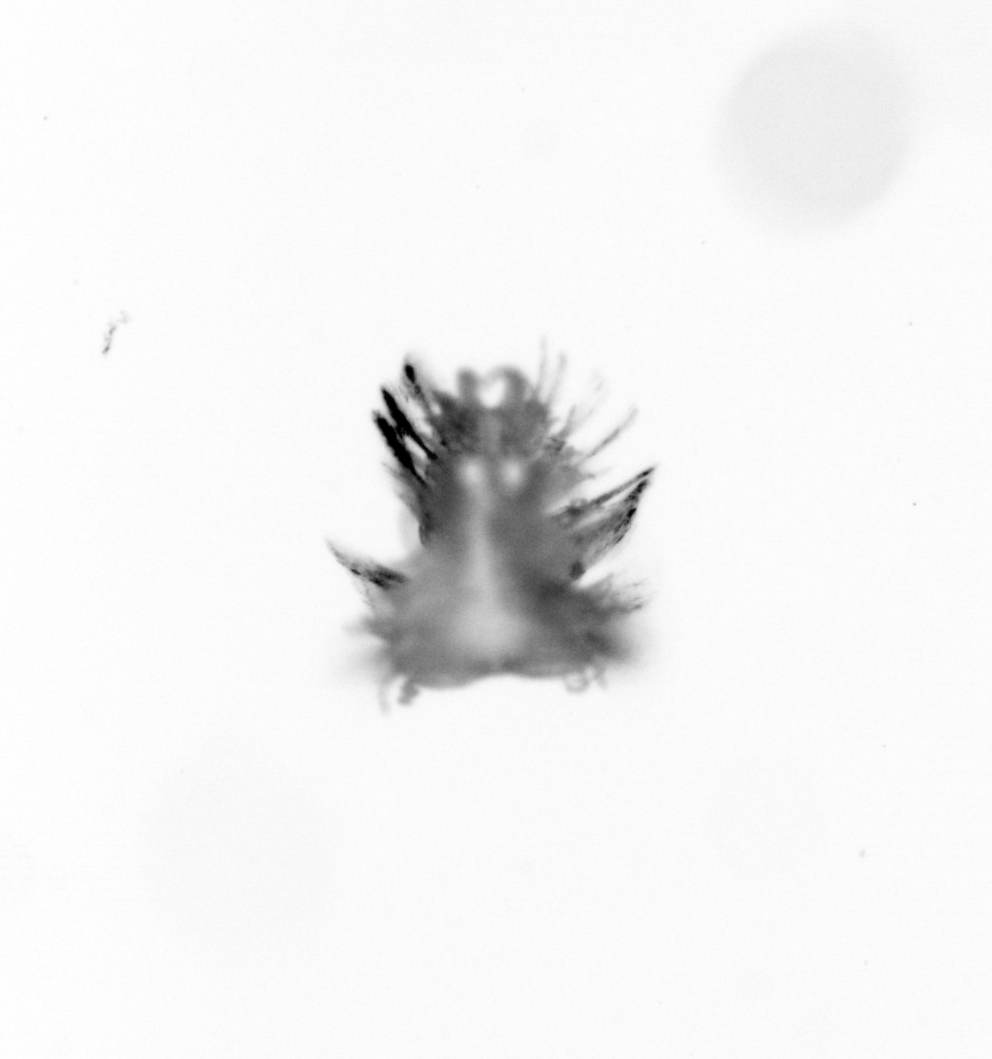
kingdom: Animalia
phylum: Annelida
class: Polychaeta
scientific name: Polychaeta
